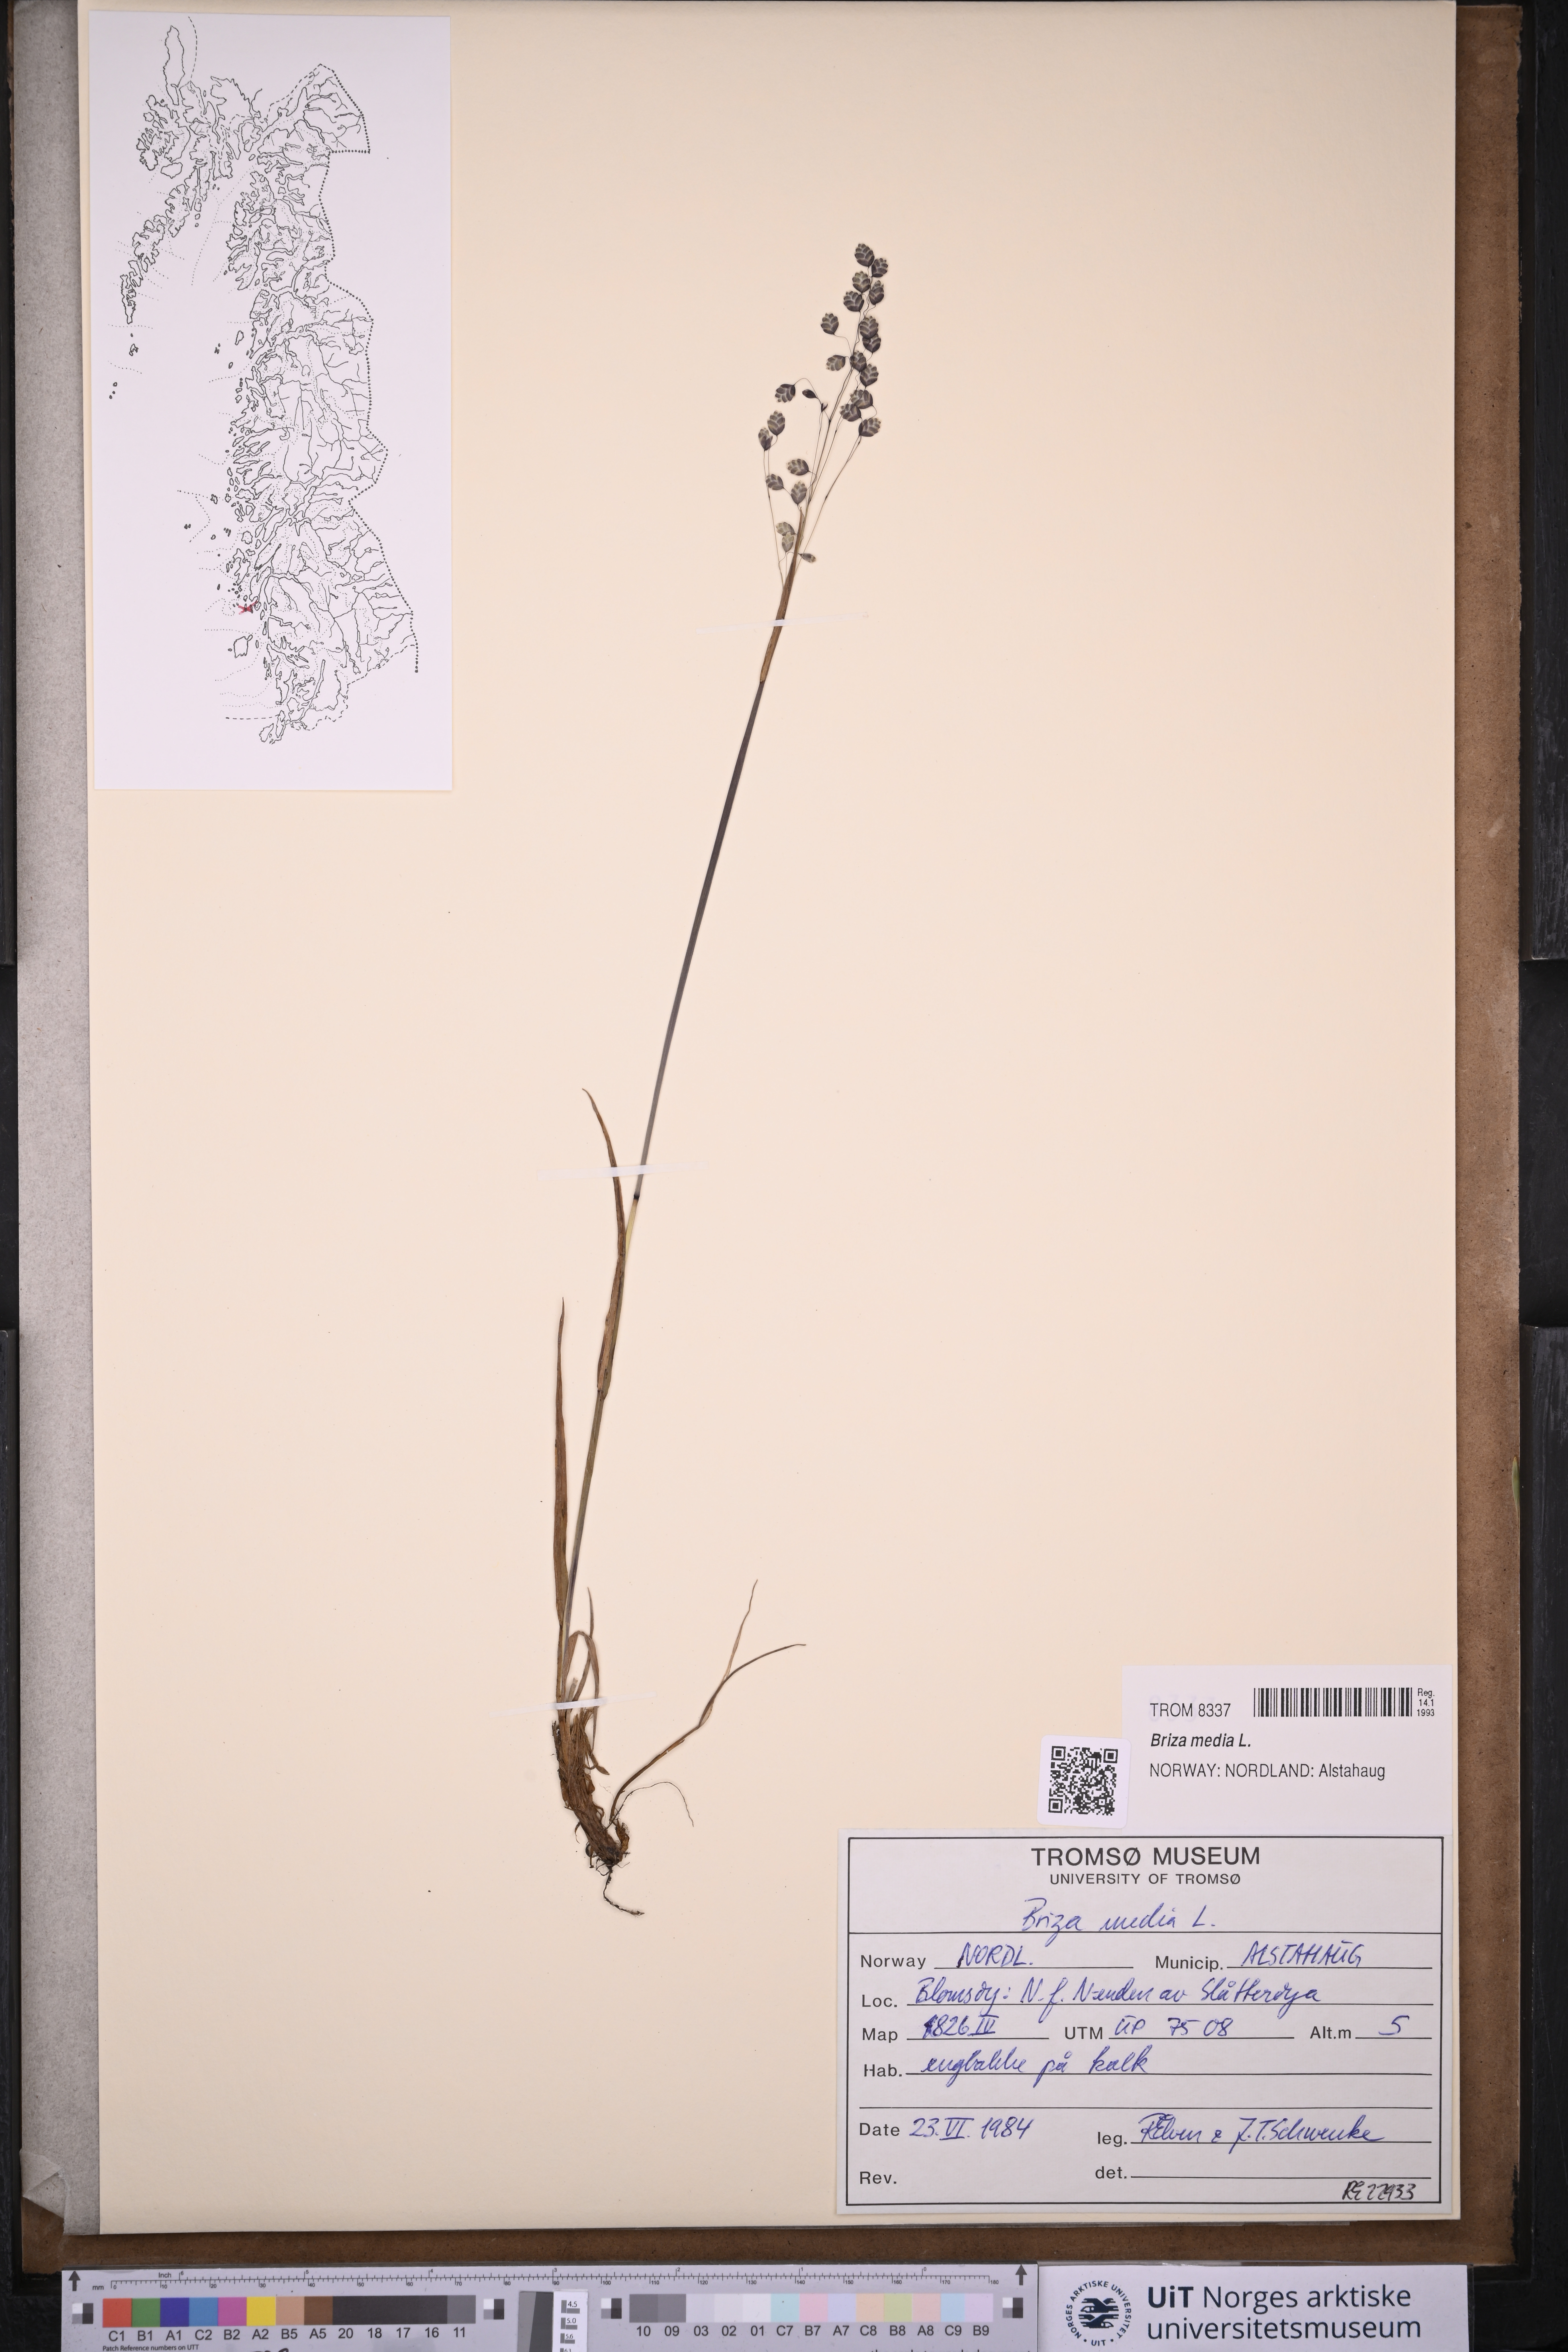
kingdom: Plantae
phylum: Tracheophyta
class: Liliopsida
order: Poales
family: Poaceae
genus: Briza
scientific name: Briza media
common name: Quaking grass
